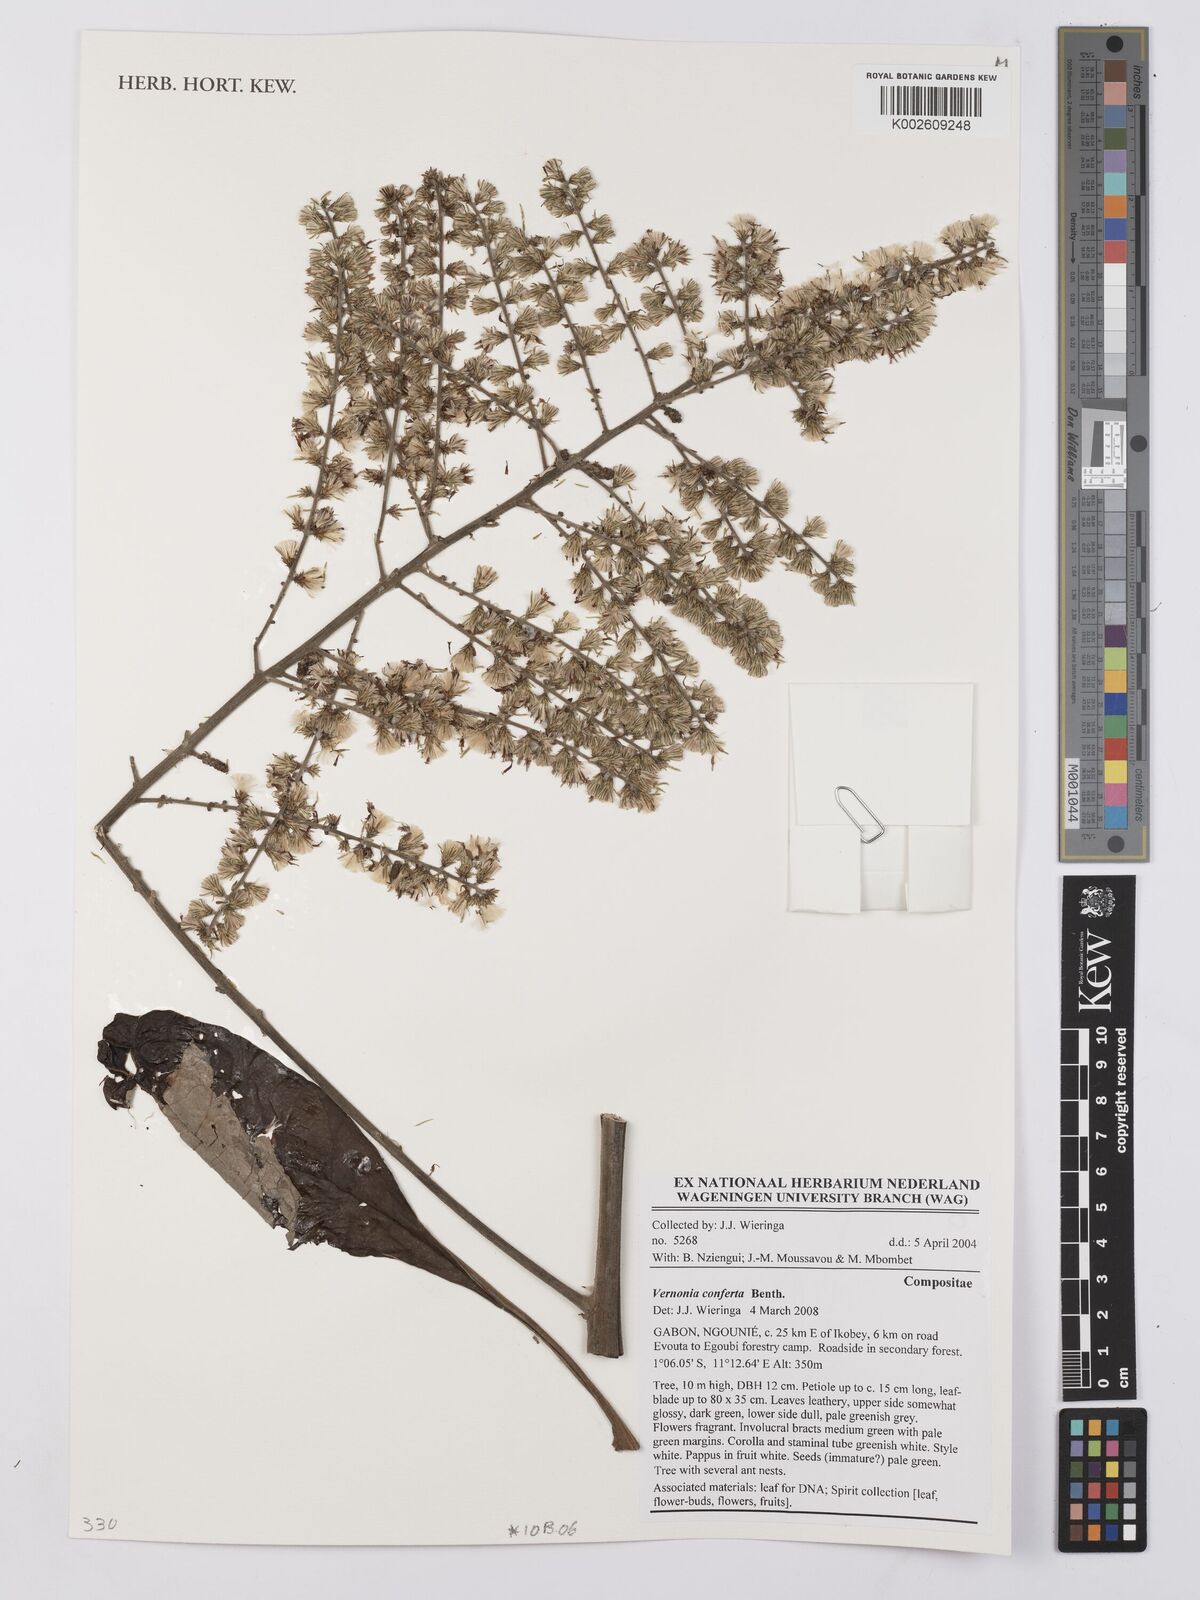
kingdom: Plantae
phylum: Tracheophyta
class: Magnoliopsida
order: Asterales
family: Asteraceae
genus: Monosis
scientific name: Monosis conferta
